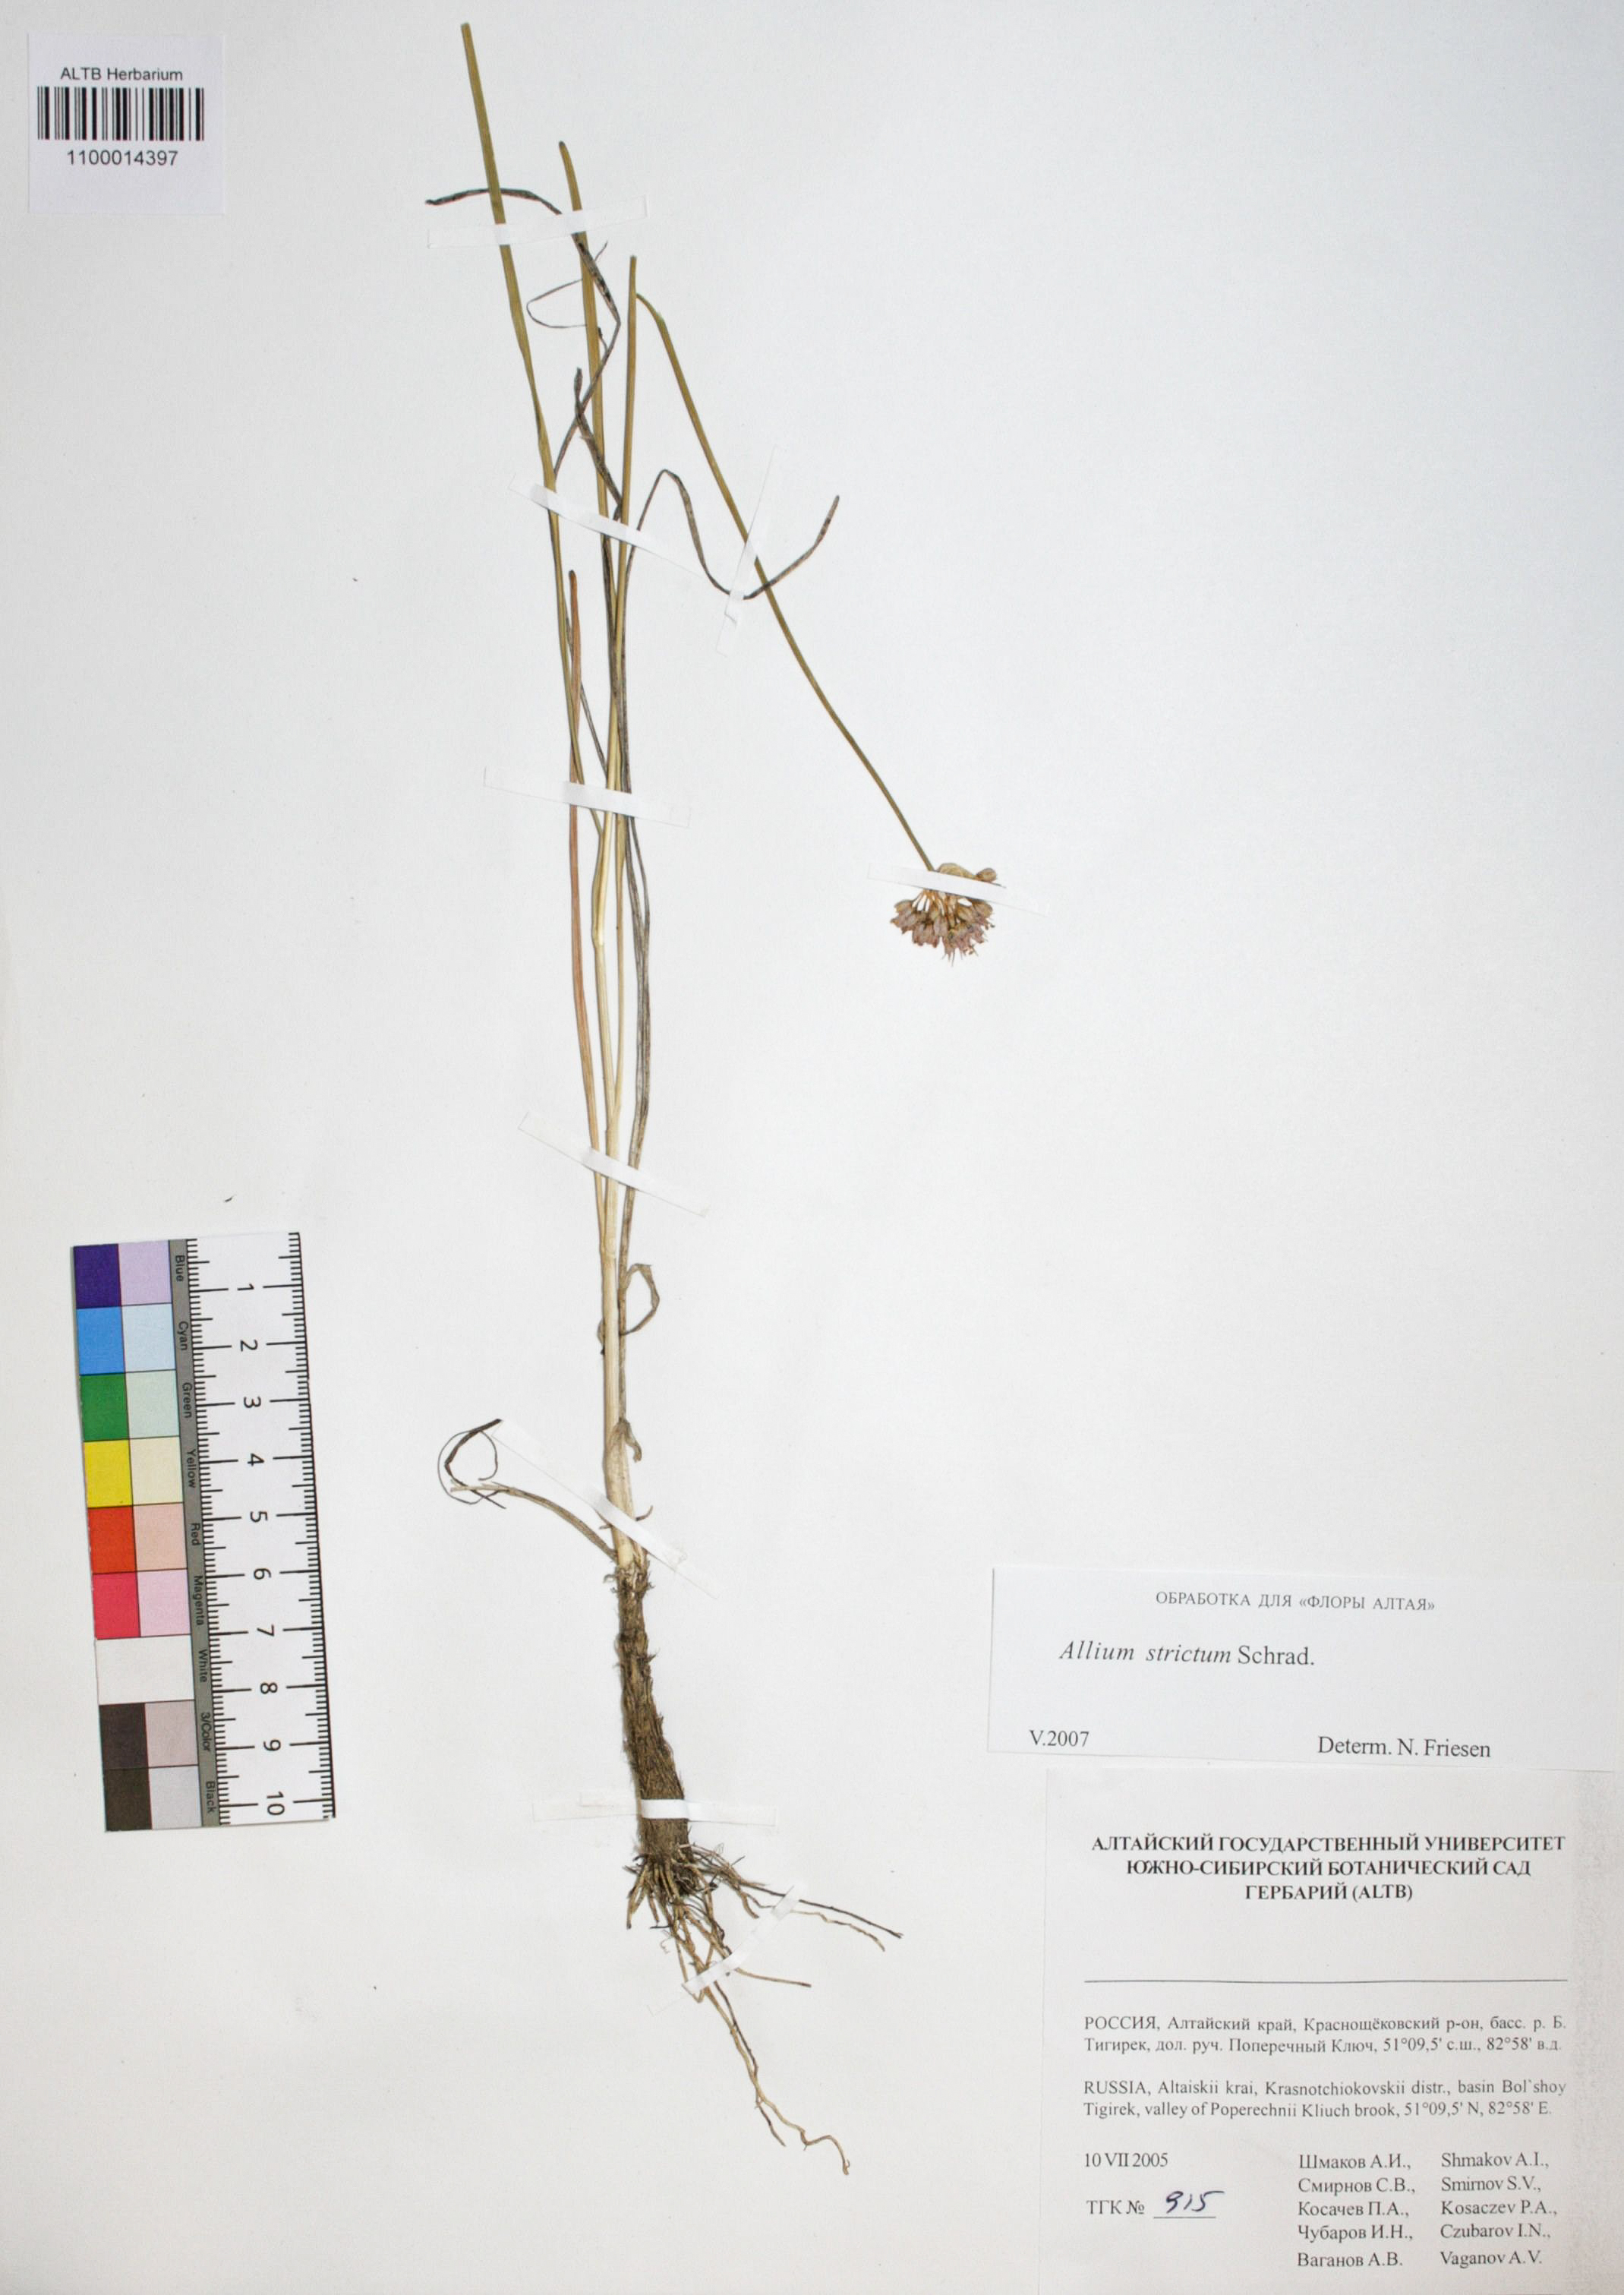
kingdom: Plantae
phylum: Tracheophyta
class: Liliopsida
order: Asparagales
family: Amaryllidaceae
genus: Allium
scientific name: Allium strictum
